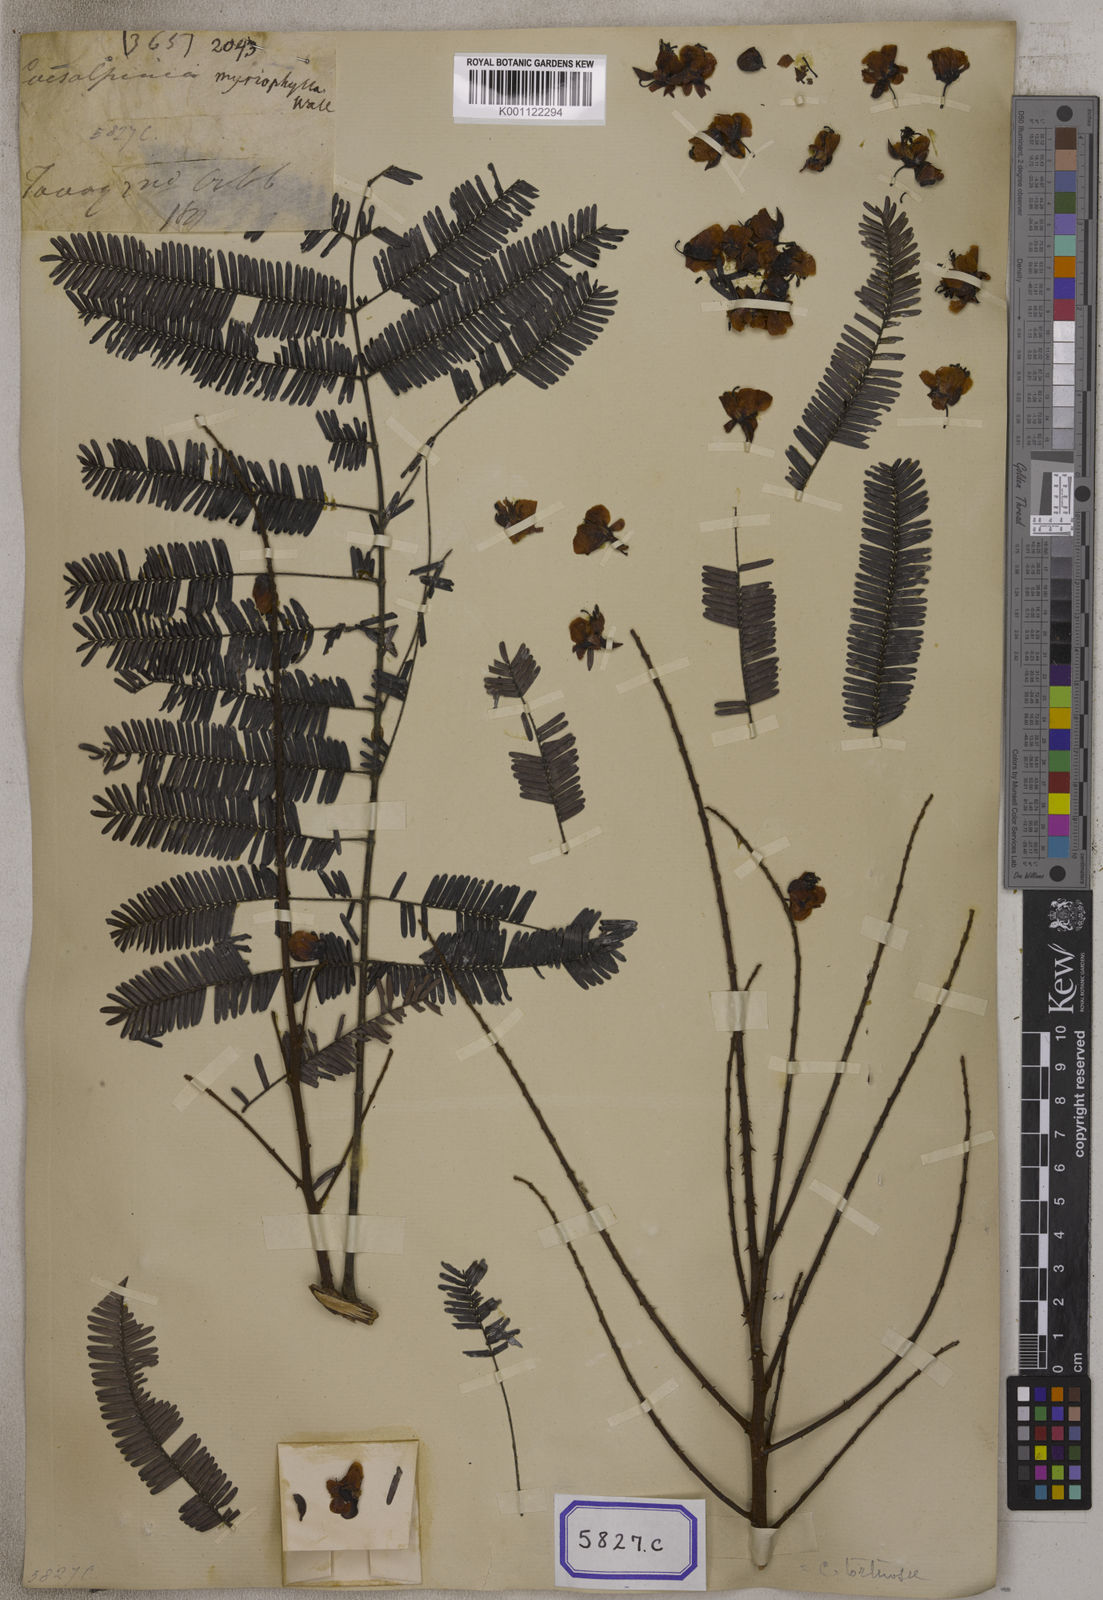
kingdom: Plantae
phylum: Tracheophyta
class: Magnoliopsida
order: Fabales
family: Fabaceae
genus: Caesalpinia
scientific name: Caesalpinia
